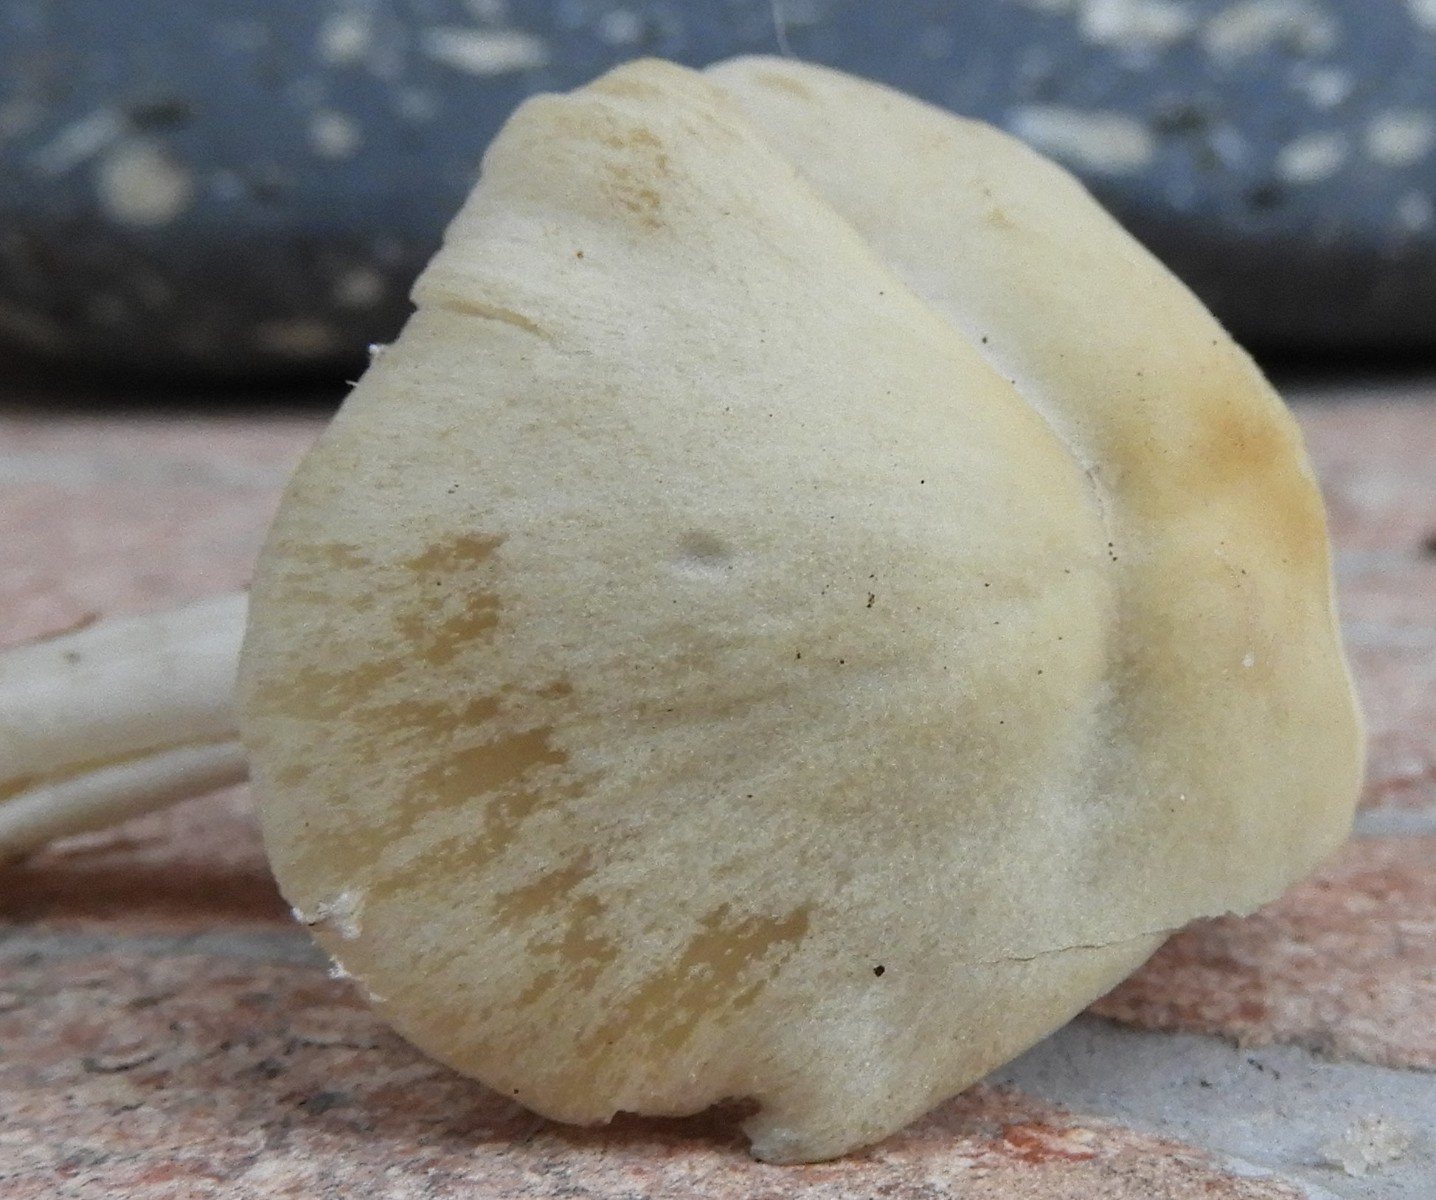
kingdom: Fungi
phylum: Basidiomycota
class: Agaricomycetes
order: Agaricales
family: Psathyrellaceae
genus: Candolleomyces
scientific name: Candolleomyces candolleanus
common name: Candolles mørkhat
